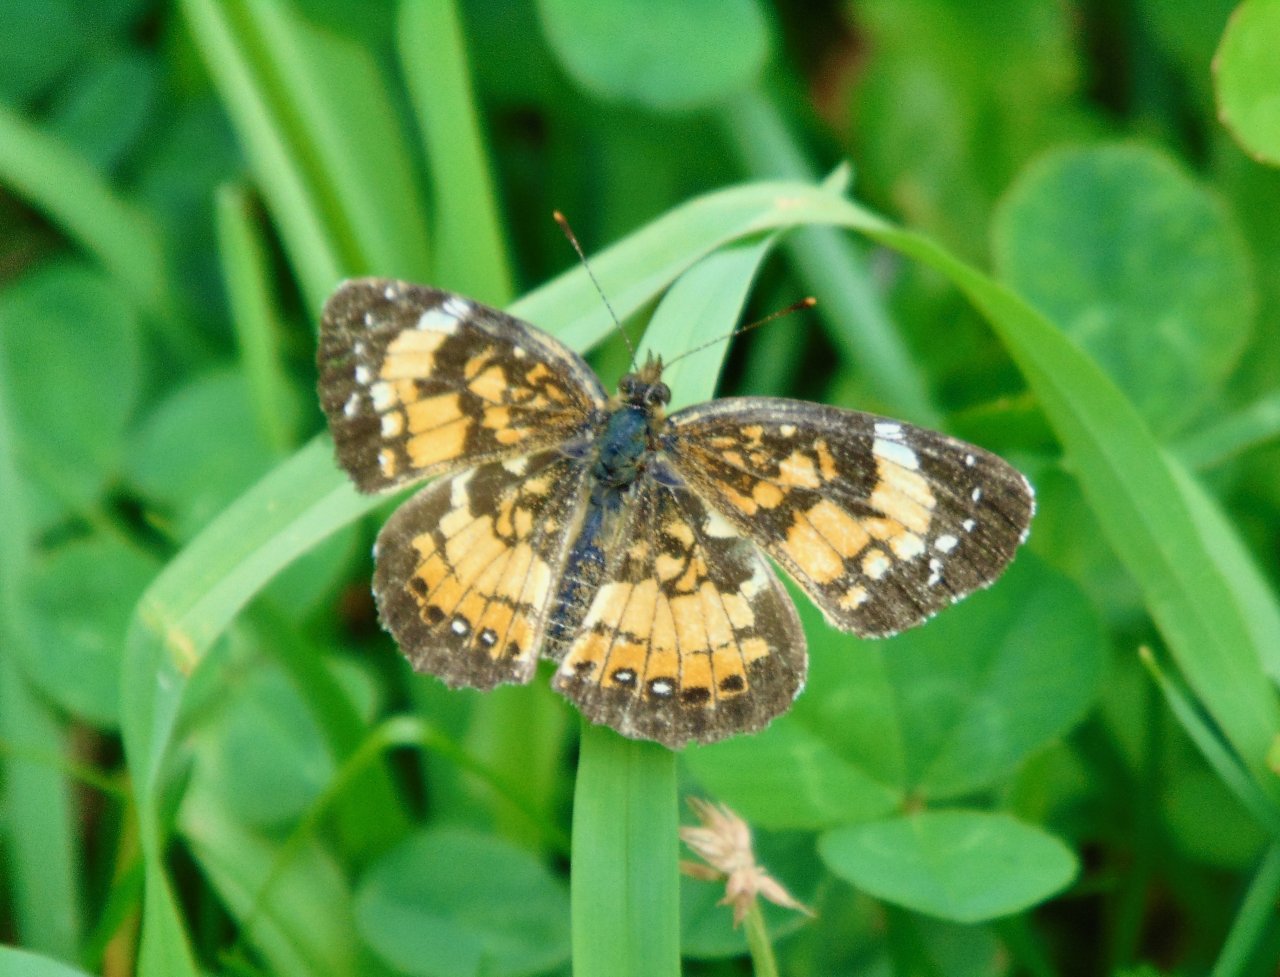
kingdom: Animalia
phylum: Arthropoda
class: Insecta
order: Lepidoptera
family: Nymphalidae
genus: Chlosyne
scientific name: Chlosyne nycteis
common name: Silvery Checkerspot
